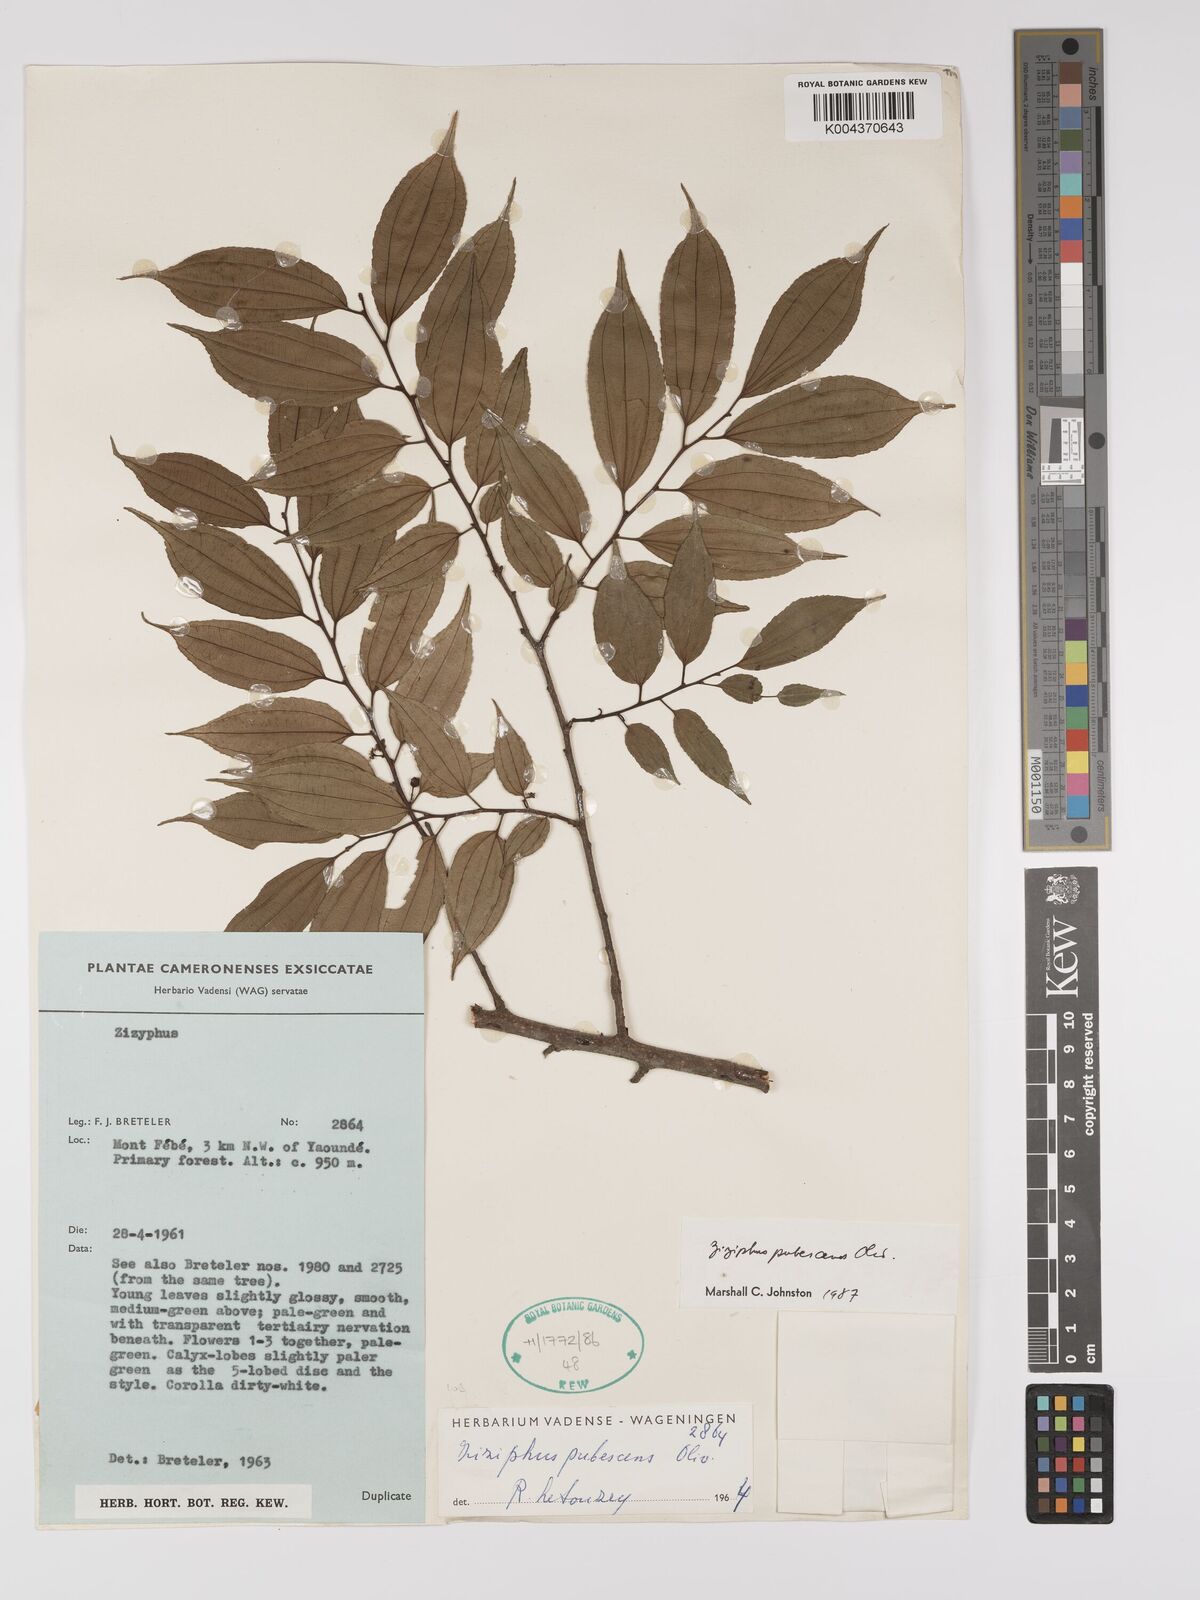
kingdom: Plantae
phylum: Tracheophyta
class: Magnoliopsida
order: Rosales
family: Rhamnaceae
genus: Ziziphus
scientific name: Ziziphus pubescens
